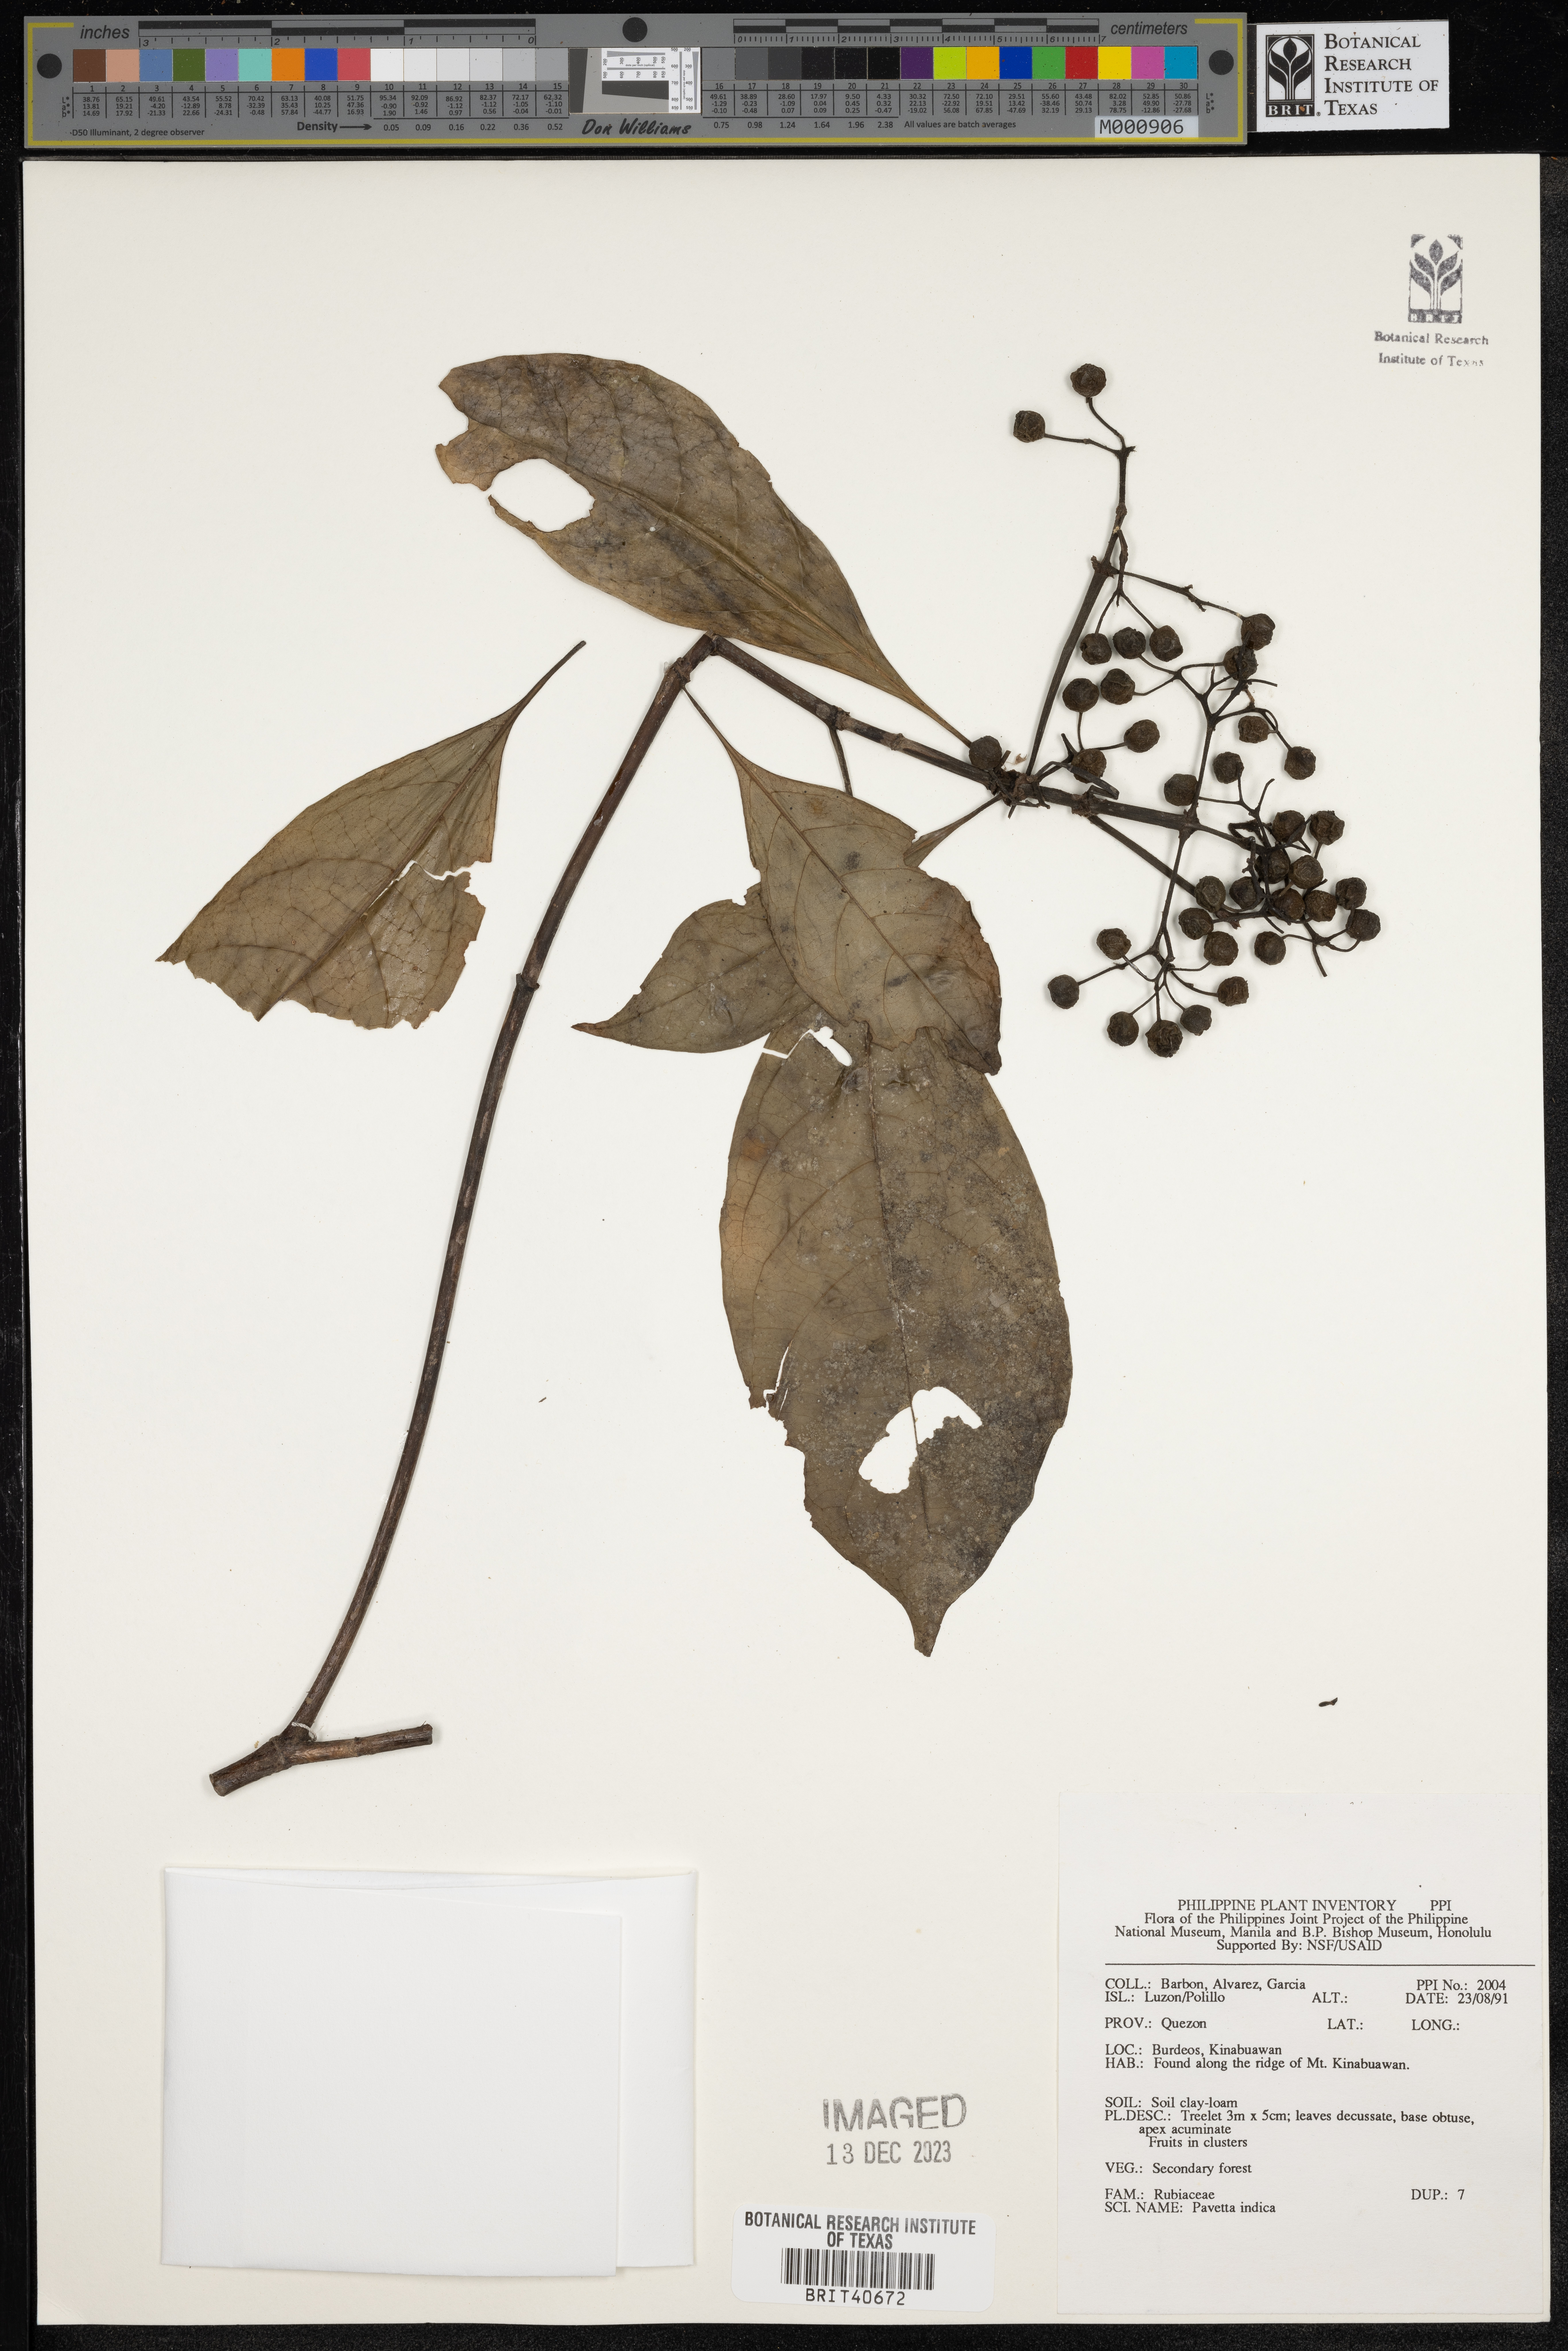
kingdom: Plantae
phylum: Tracheophyta
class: Magnoliopsida
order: Gentianales
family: Rubiaceae
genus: Pavetta
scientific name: Pavetta indica
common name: Indian pavetta
